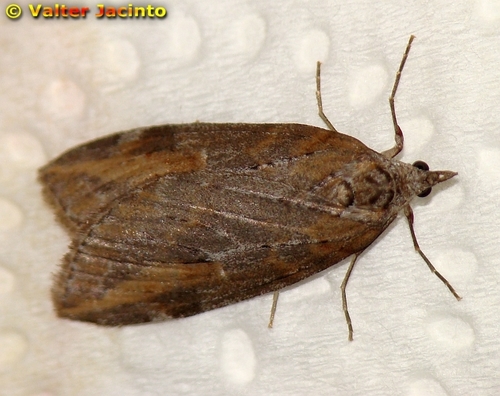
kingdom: Animalia
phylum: Arthropoda
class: Insecta
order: Lepidoptera
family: Geometridae
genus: Chesias
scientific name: Chesias isabella
